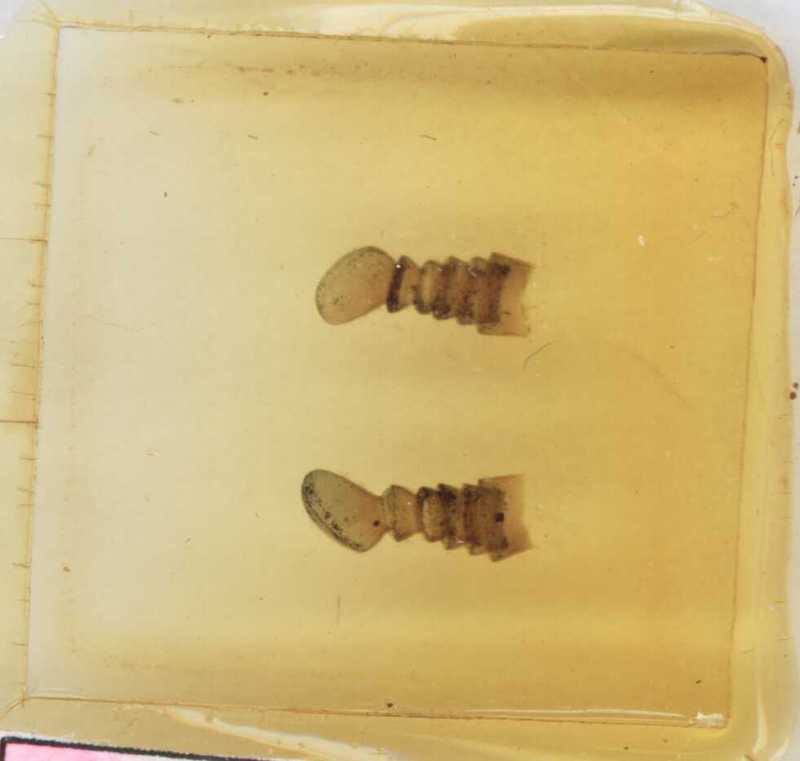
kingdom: Animalia
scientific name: Animalia
